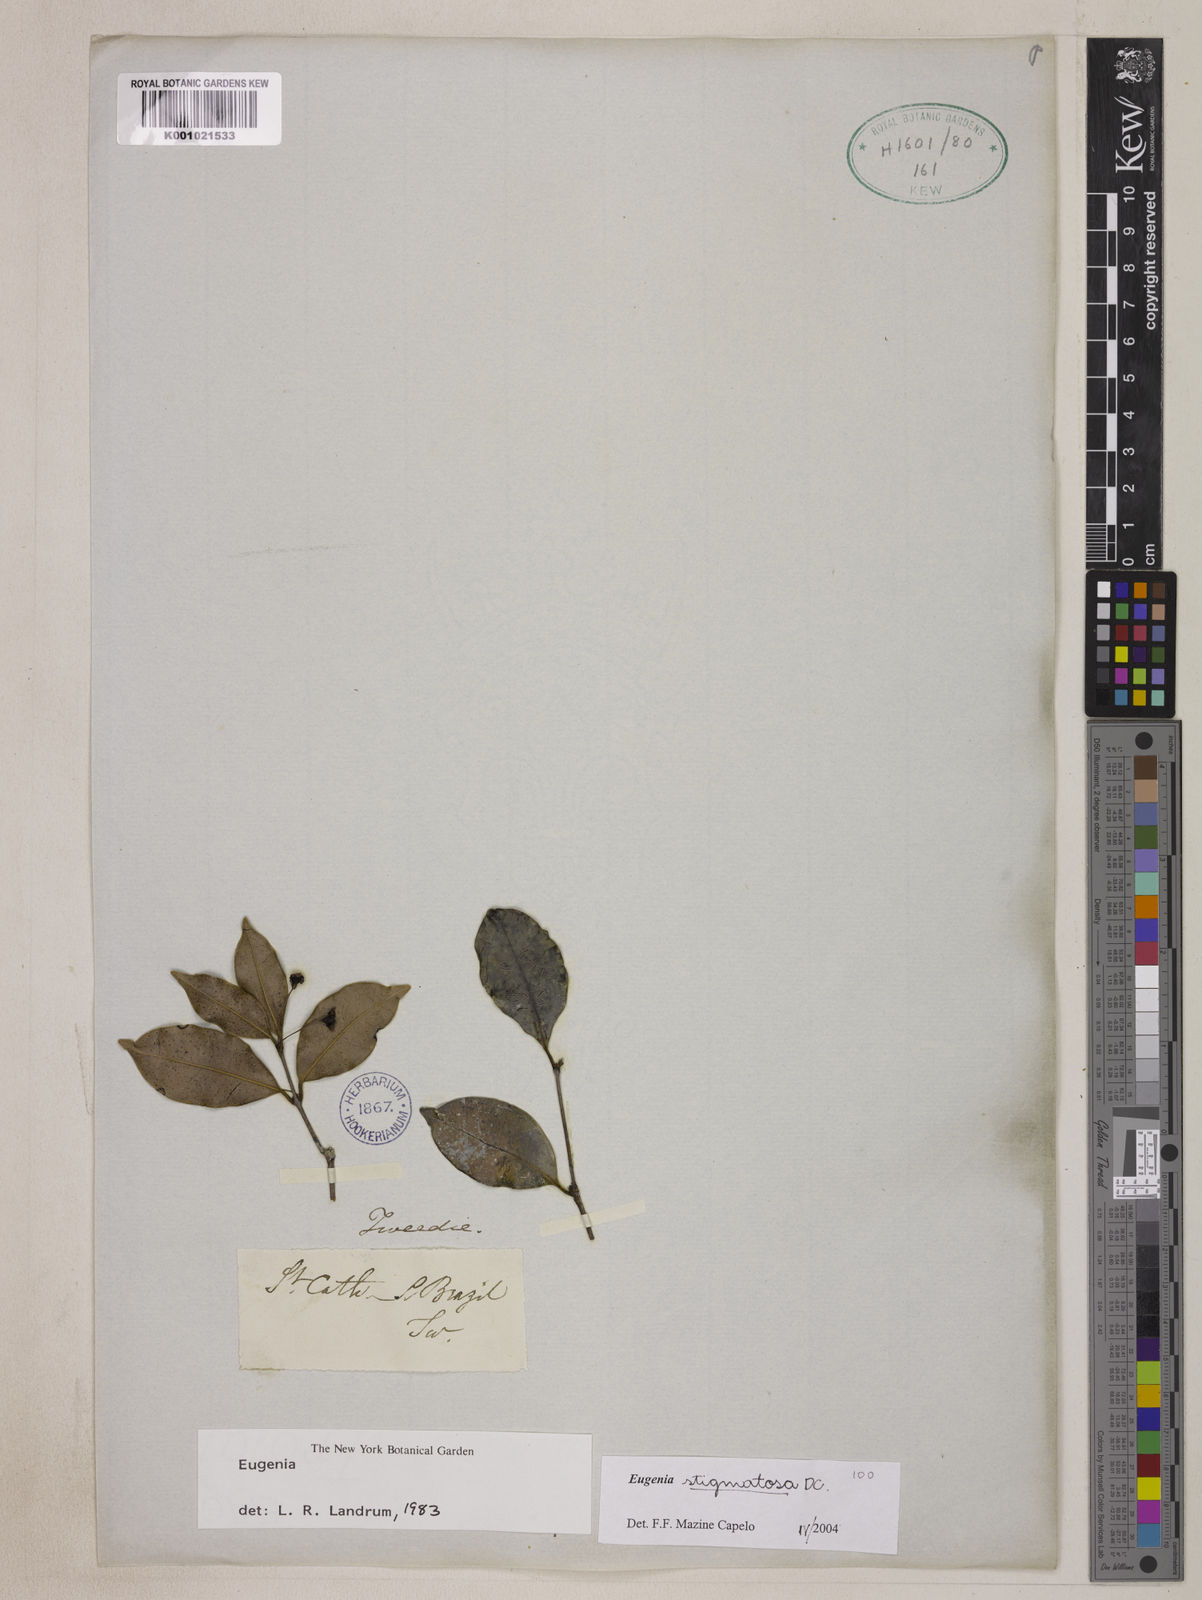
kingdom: Plantae
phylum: Tracheophyta
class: Magnoliopsida
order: Myrtales
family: Myrtaceae
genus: Eugenia
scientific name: Eugenia stigmatosa
